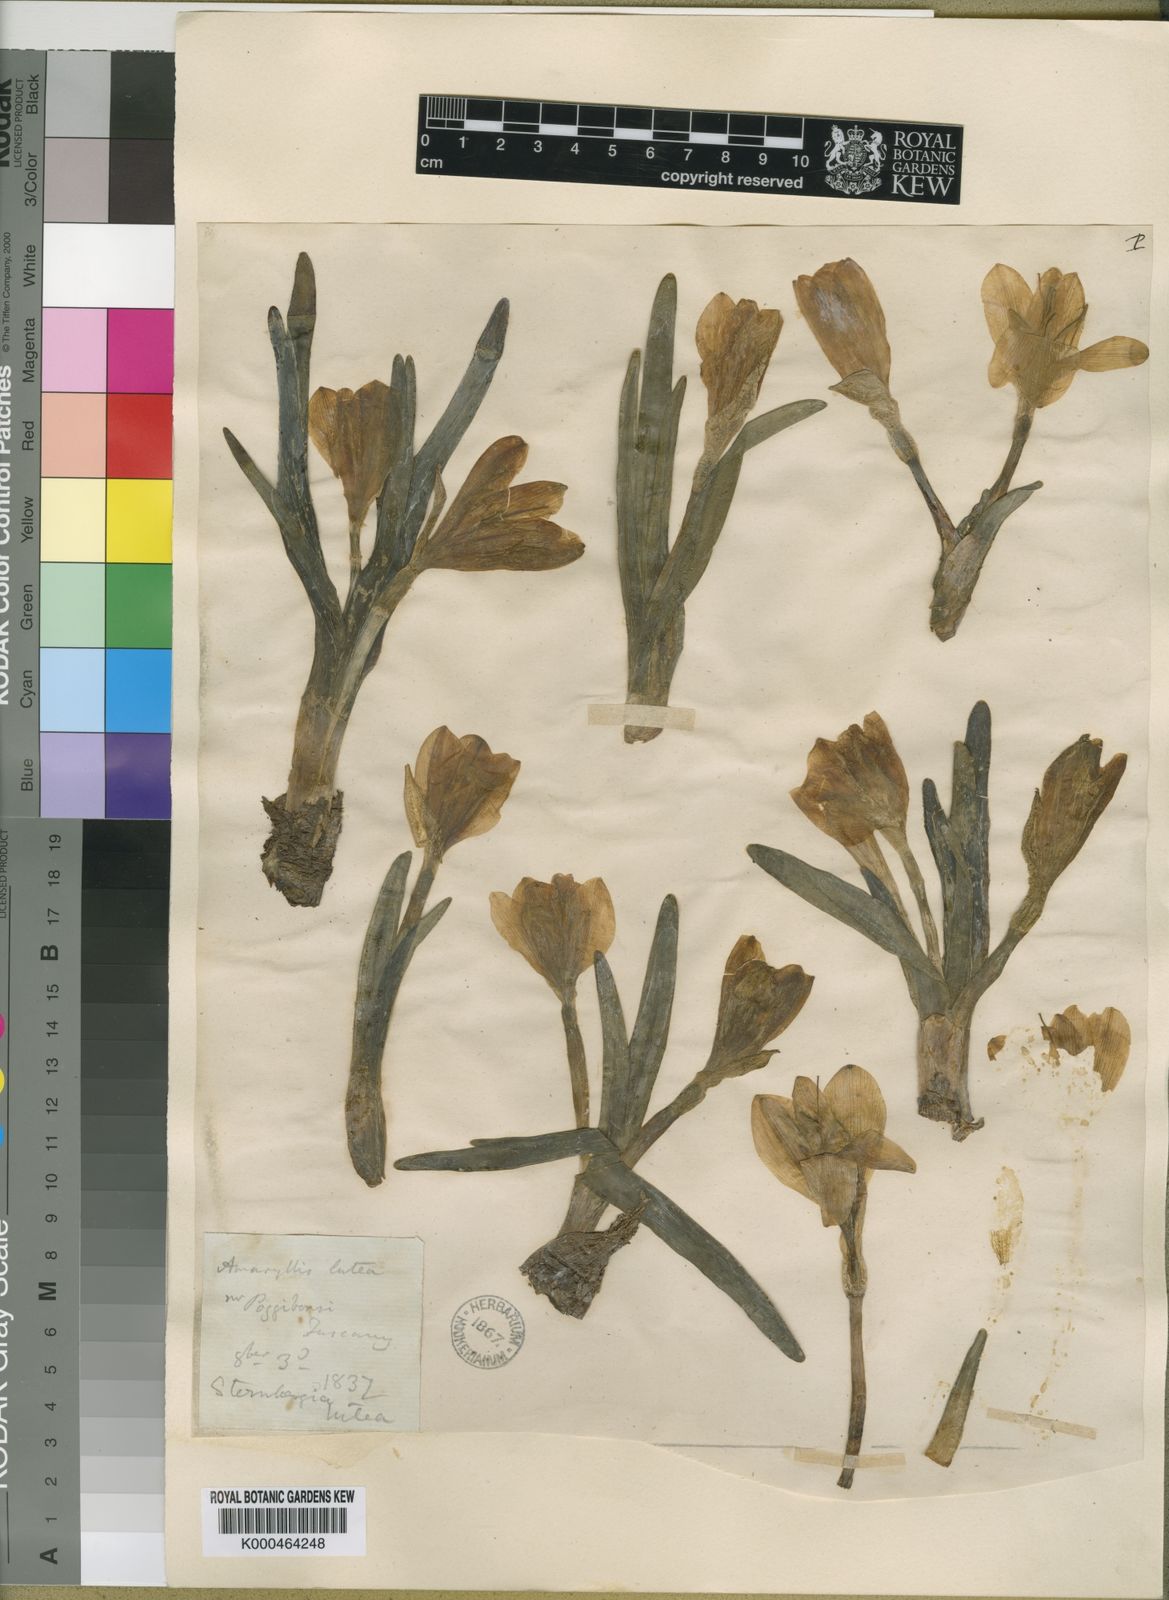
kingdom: Plantae
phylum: Tracheophyta
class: Liliopsida
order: Asparagales
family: Amaryllidaceae
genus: Sternbergia
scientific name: Sternbergia
